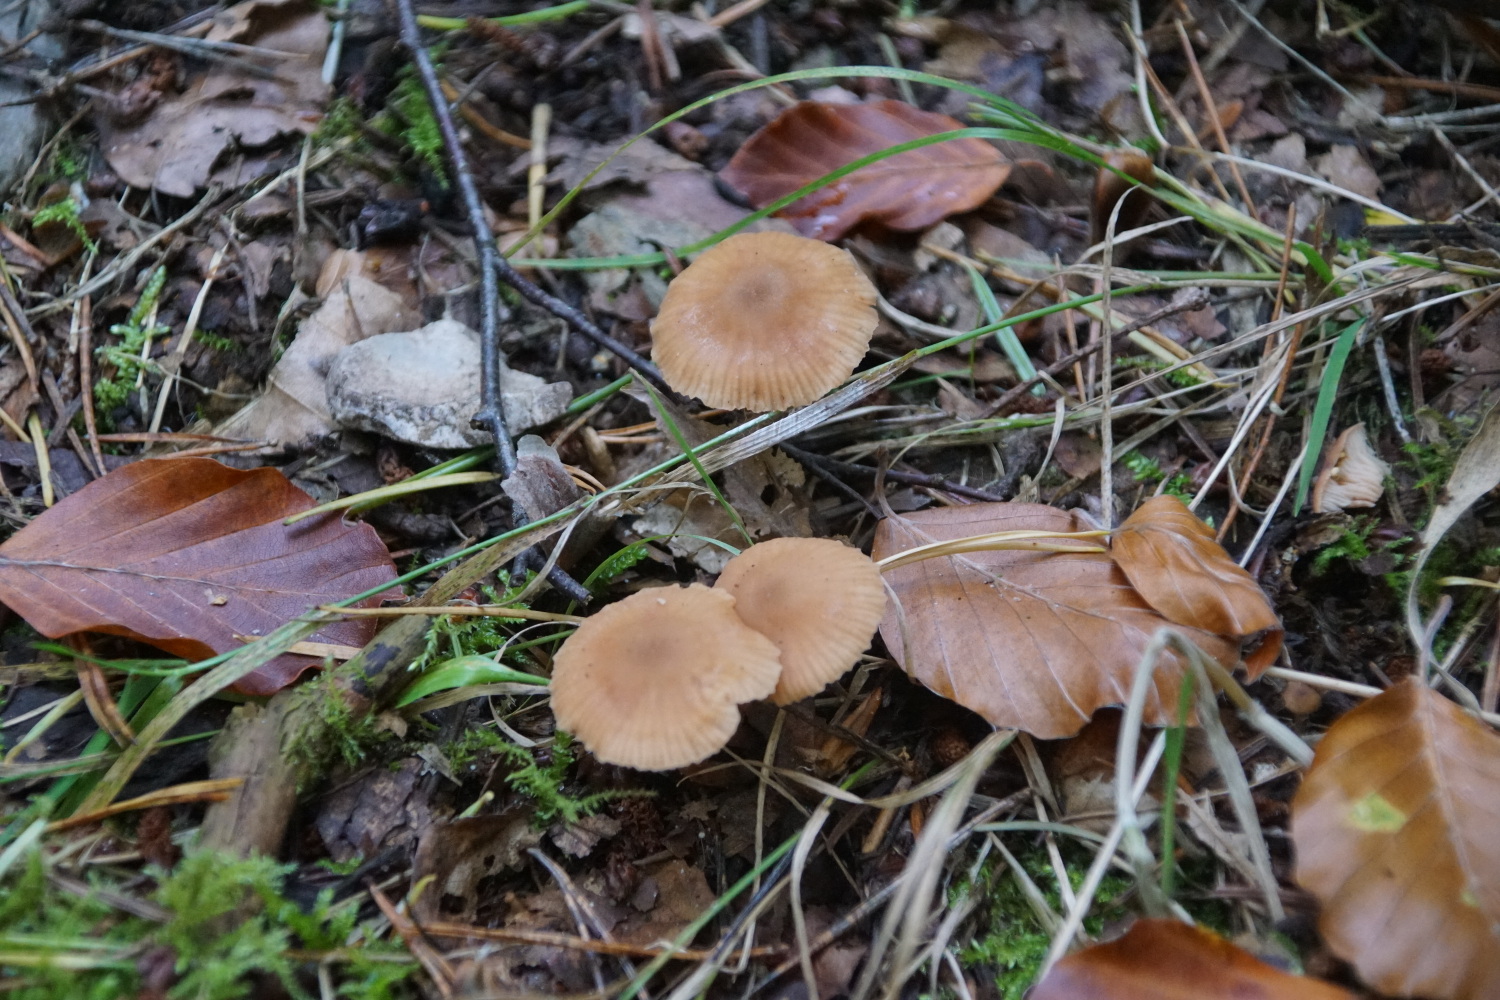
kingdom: Fungi
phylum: Basidiomycota
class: Agaricomycetes
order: Agaricales
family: Hydnangiaceae
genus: Laccaria
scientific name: Laccaria laccata
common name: rød ametysthat
